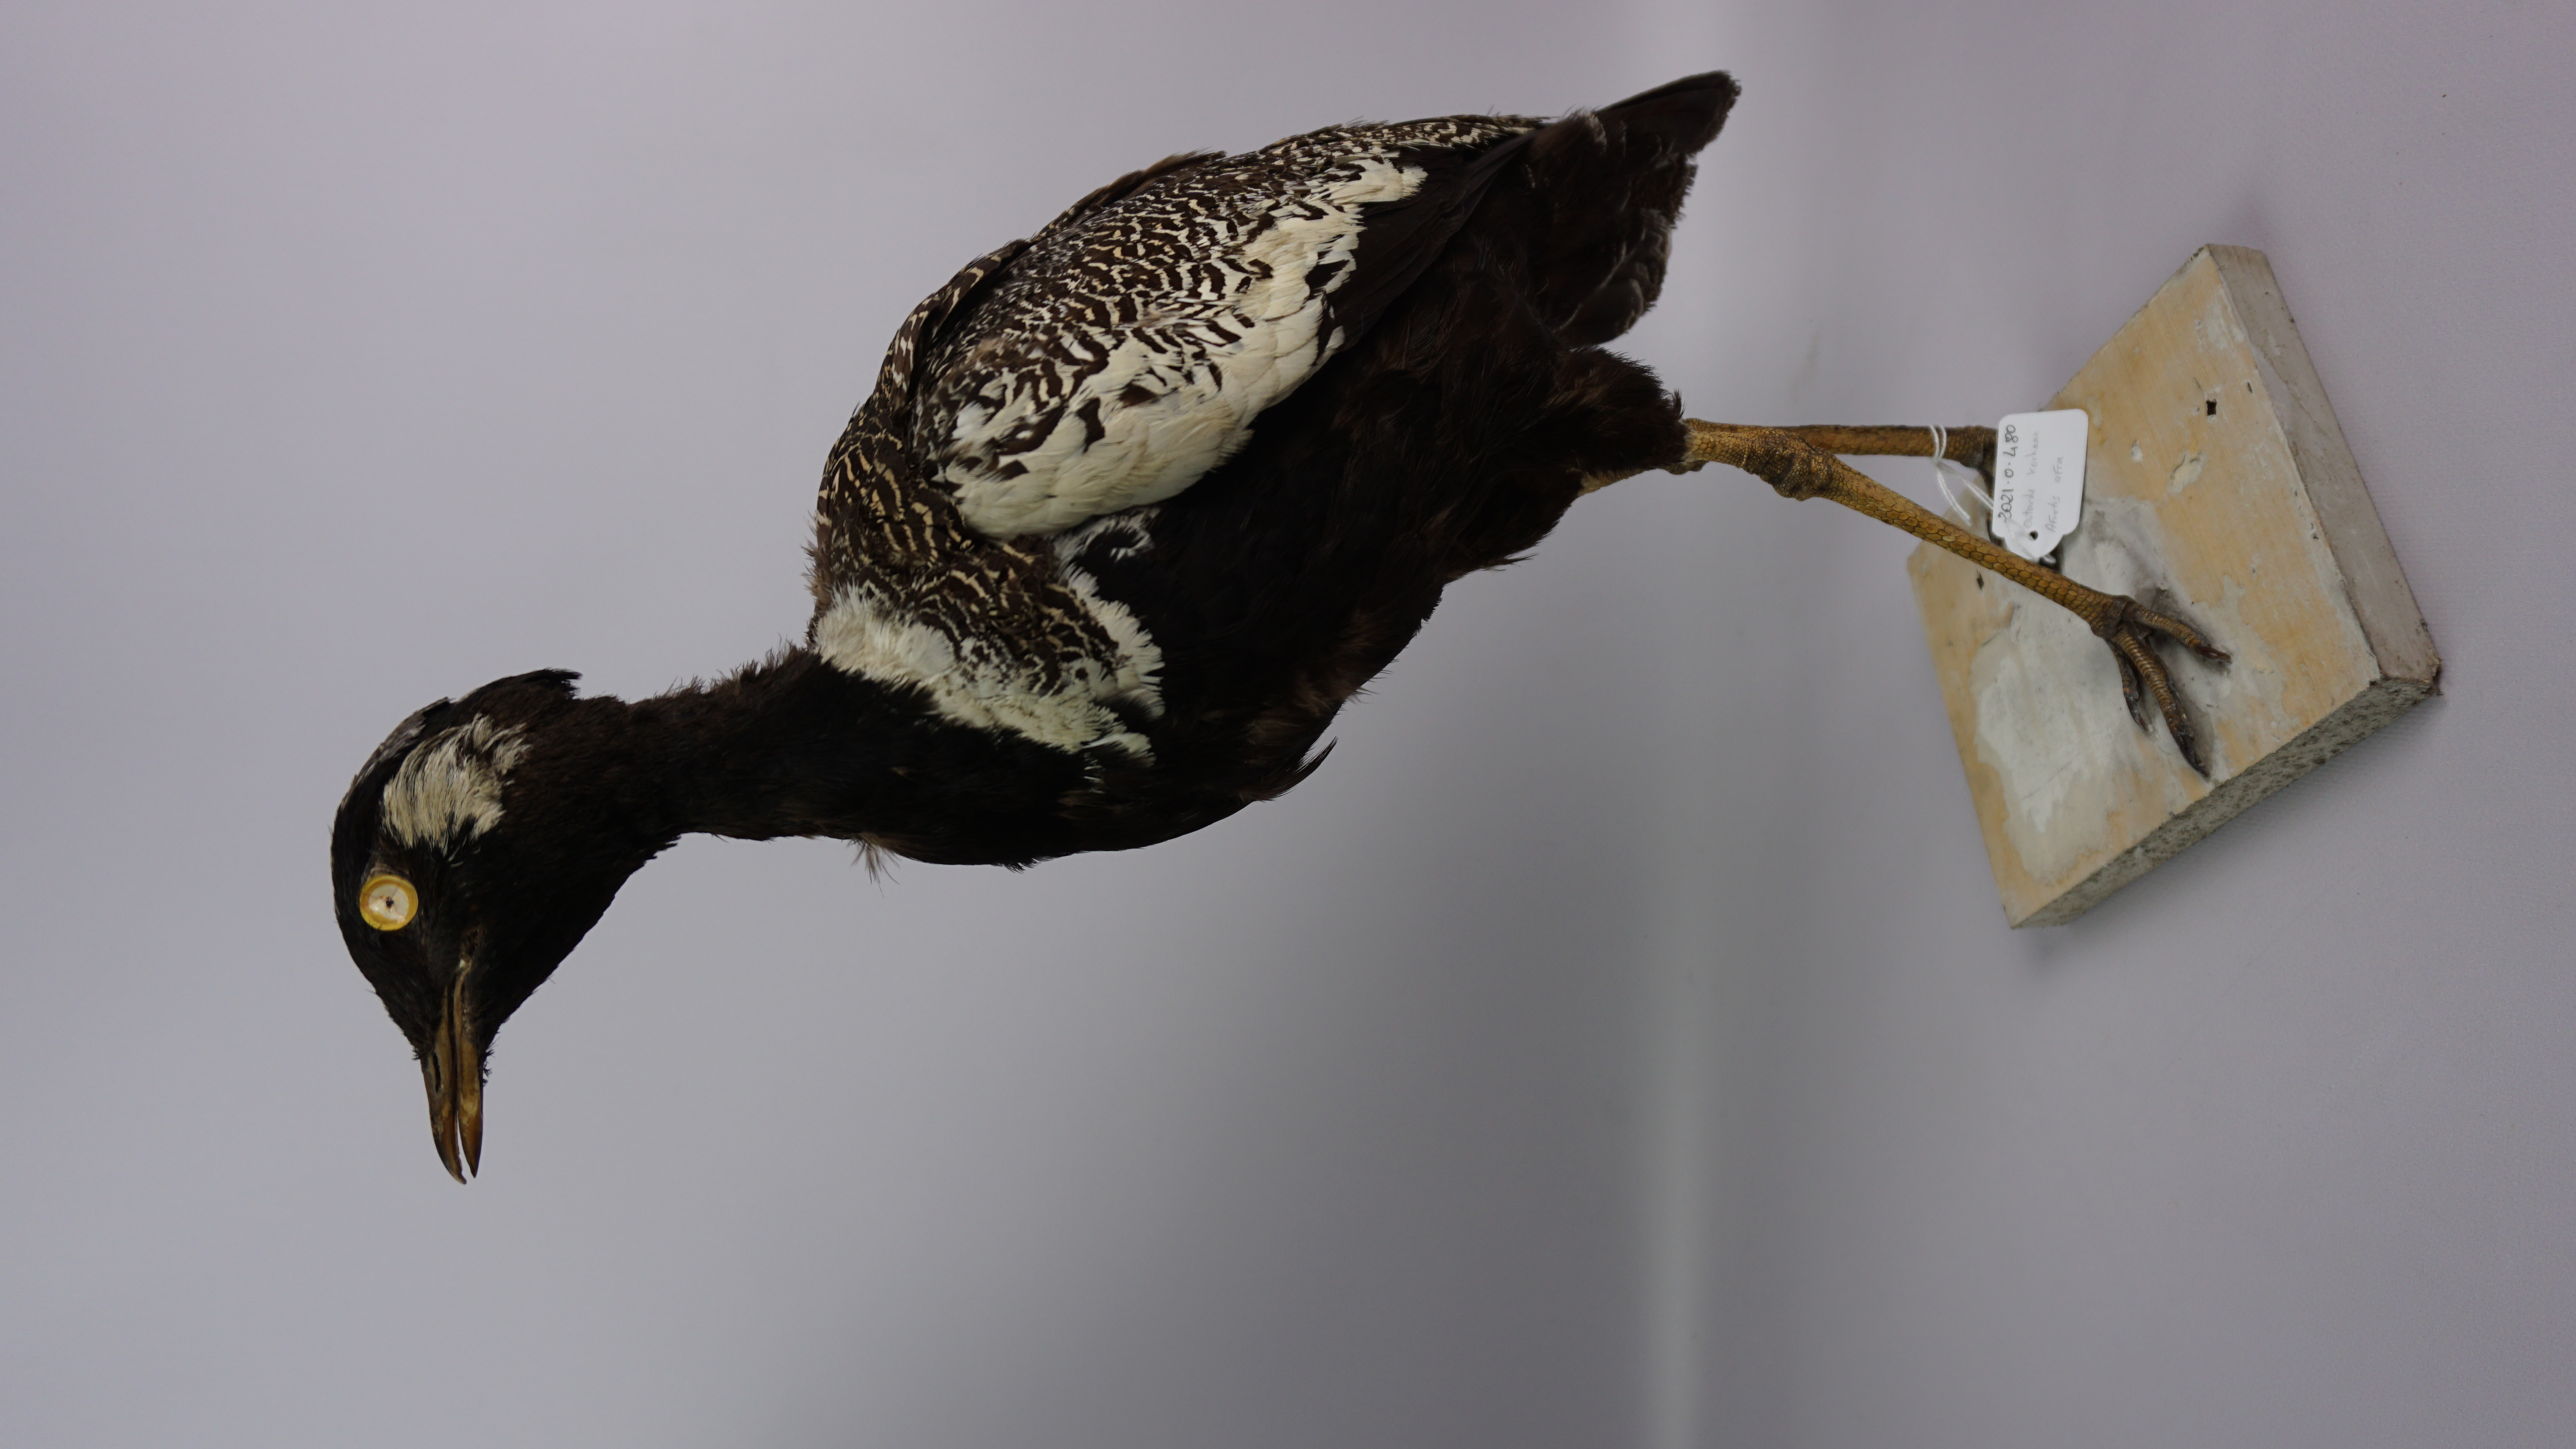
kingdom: Animalia
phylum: Chordata
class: Aves
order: Otidiformes
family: Otididae
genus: Afrotis
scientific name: Afrotis afra
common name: Southern black korhaan
